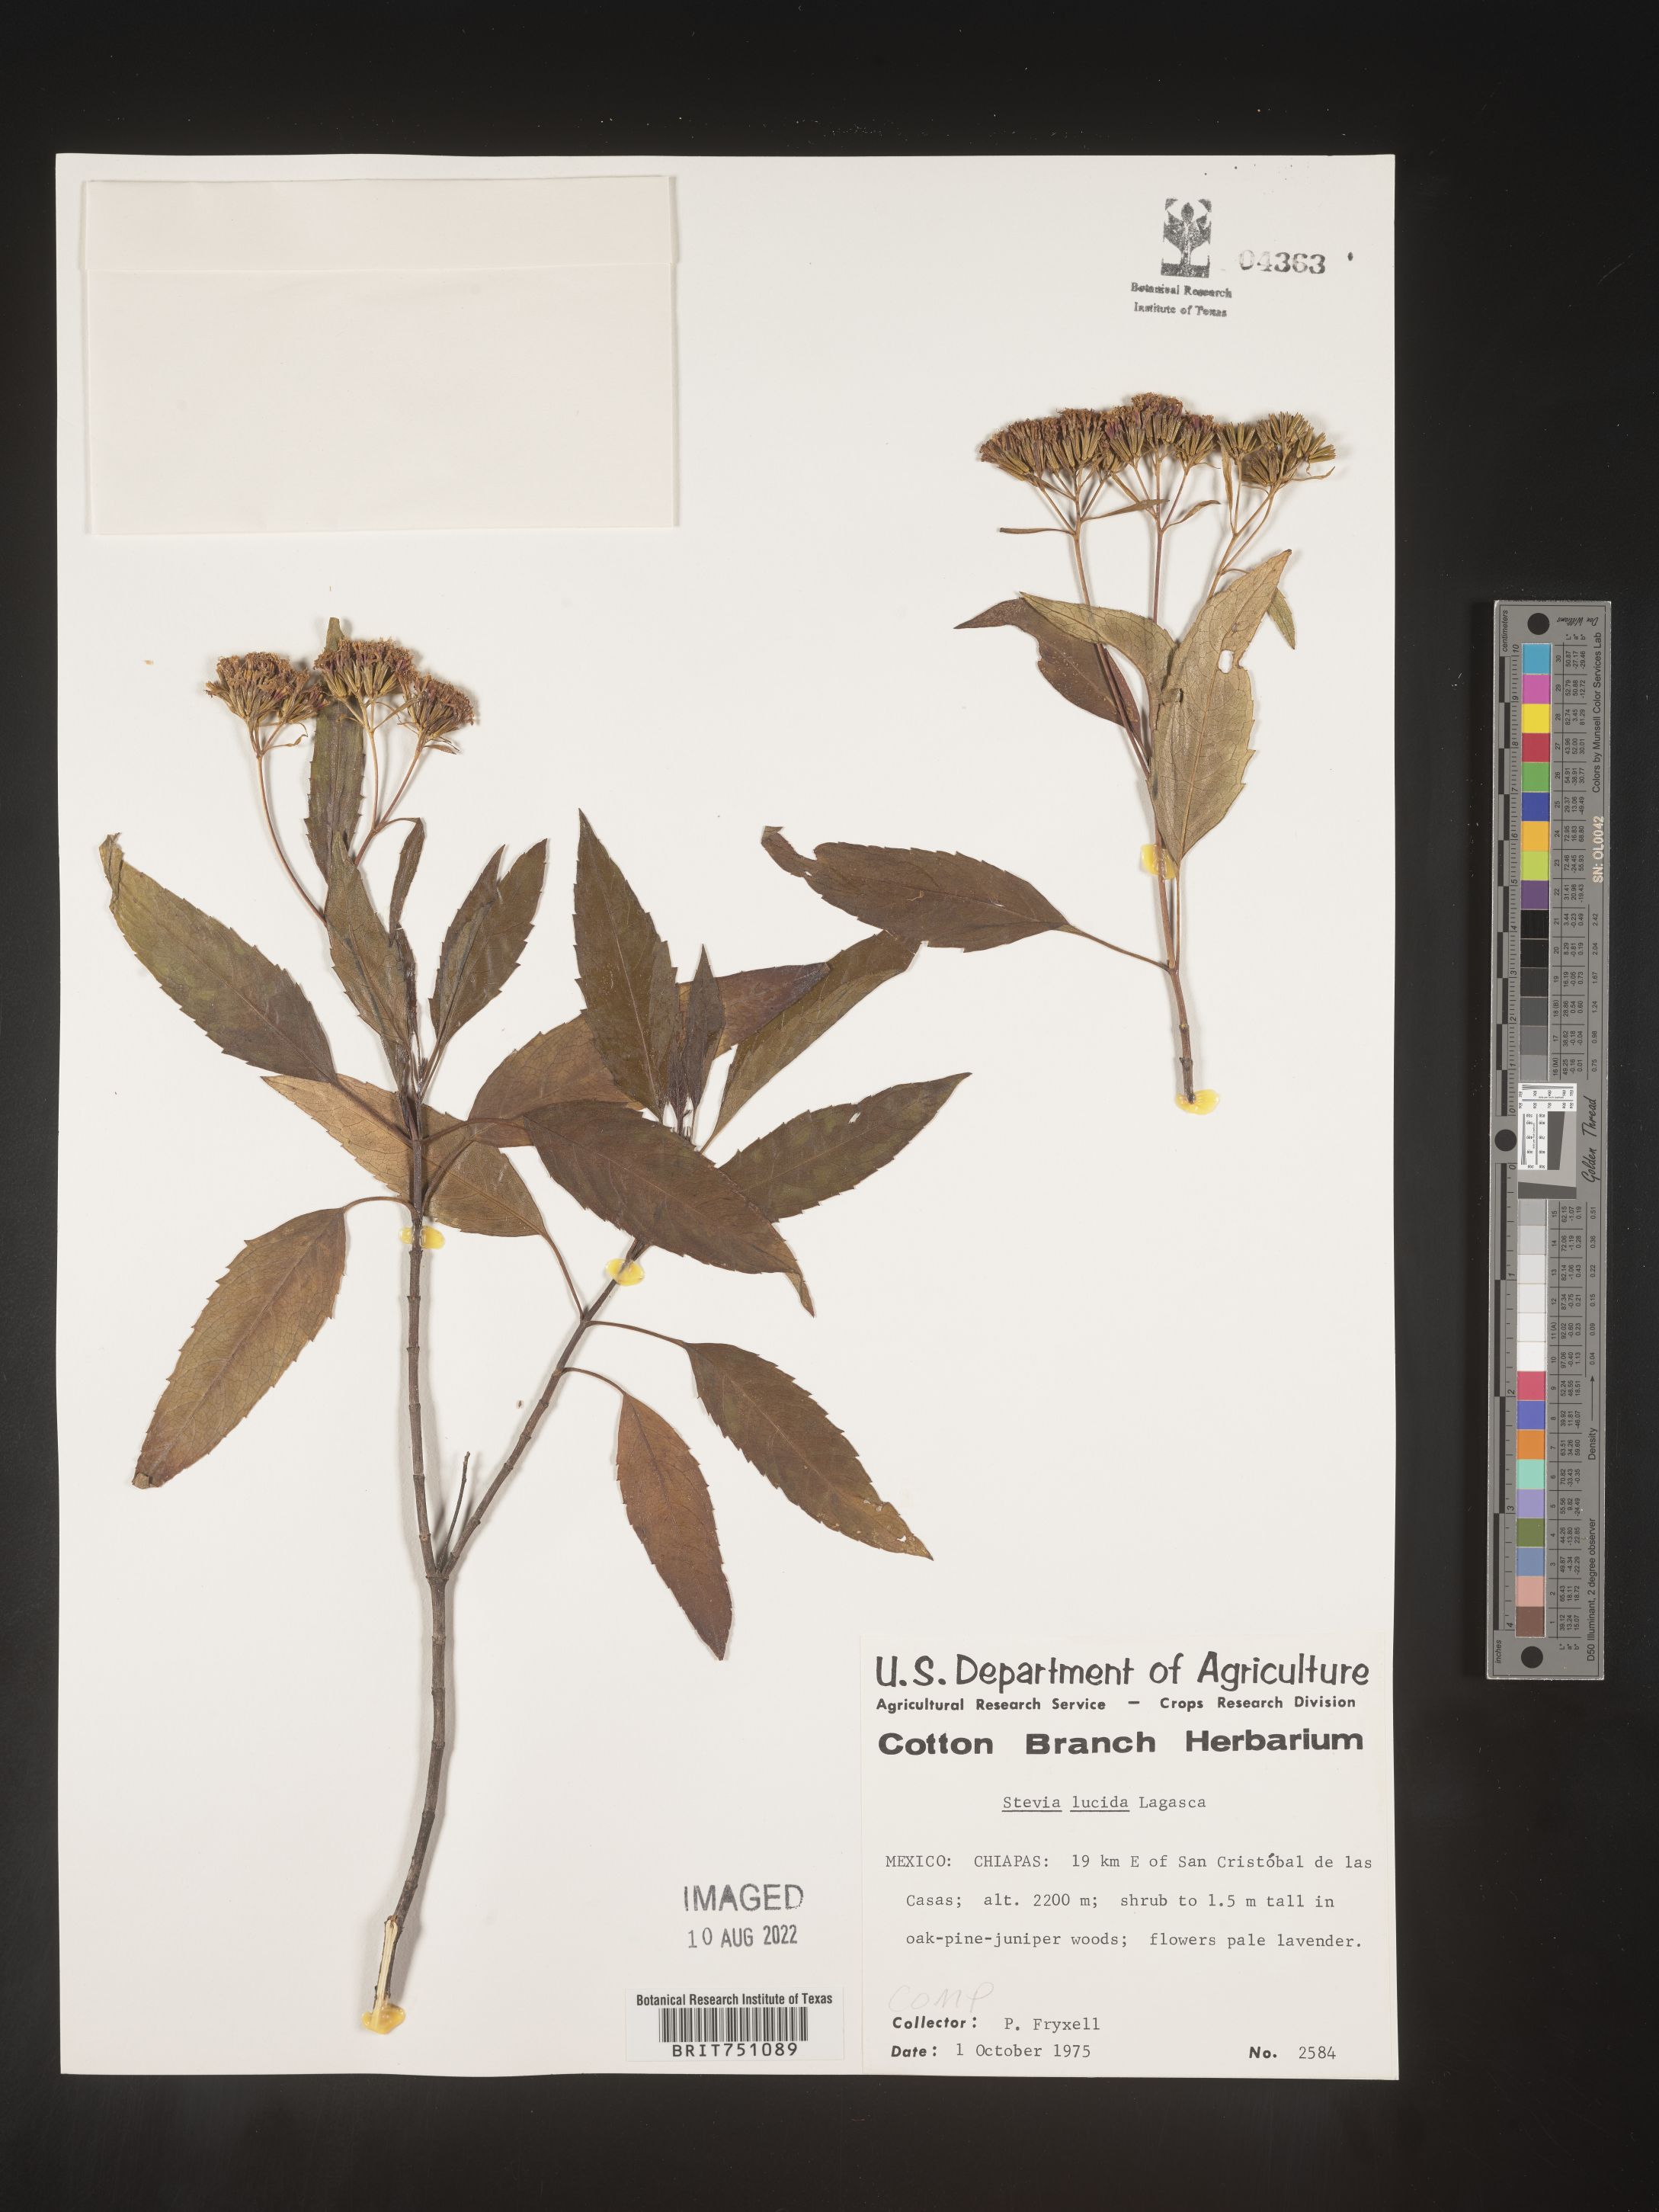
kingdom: Plantae
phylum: Tracheophyta
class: Magnoliopsida
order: Asterales
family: Asteraceae
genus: Stevia
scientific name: Stevia
